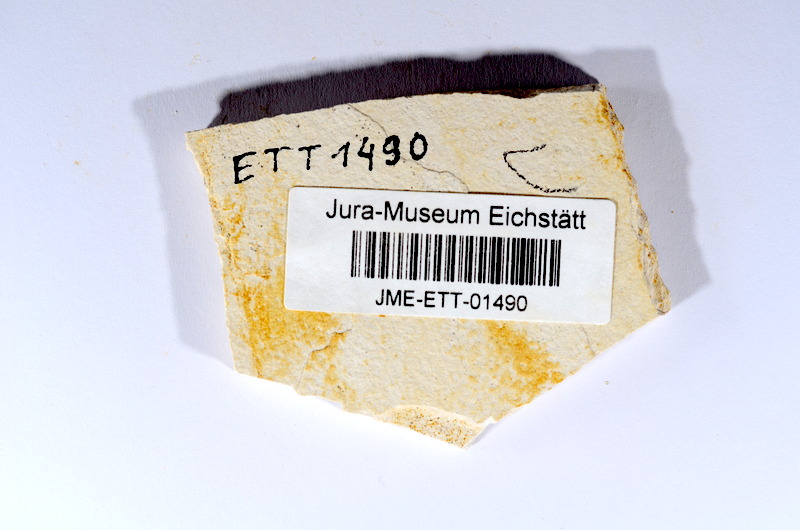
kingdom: Animalia
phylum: Chordata
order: Salmoniformes
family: Orthogonikleithridae
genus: Orthogonikleithrus
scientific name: Orthogonikleithrus hoelli
